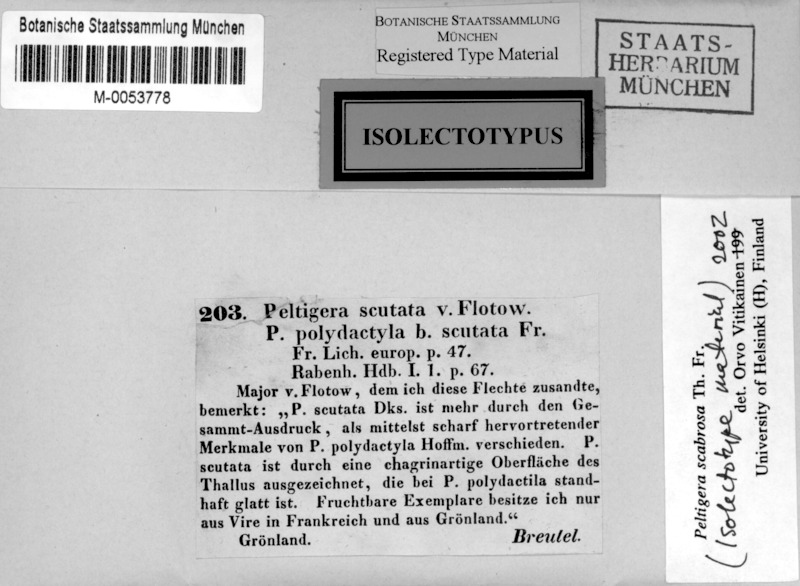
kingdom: Fungi
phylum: Ascomycota
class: Lecanoromycetes
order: Peltigerales
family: Peltigeraceae
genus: Peltigera
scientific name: Peltigera scabrosa
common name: Greater toad pelt lichen
